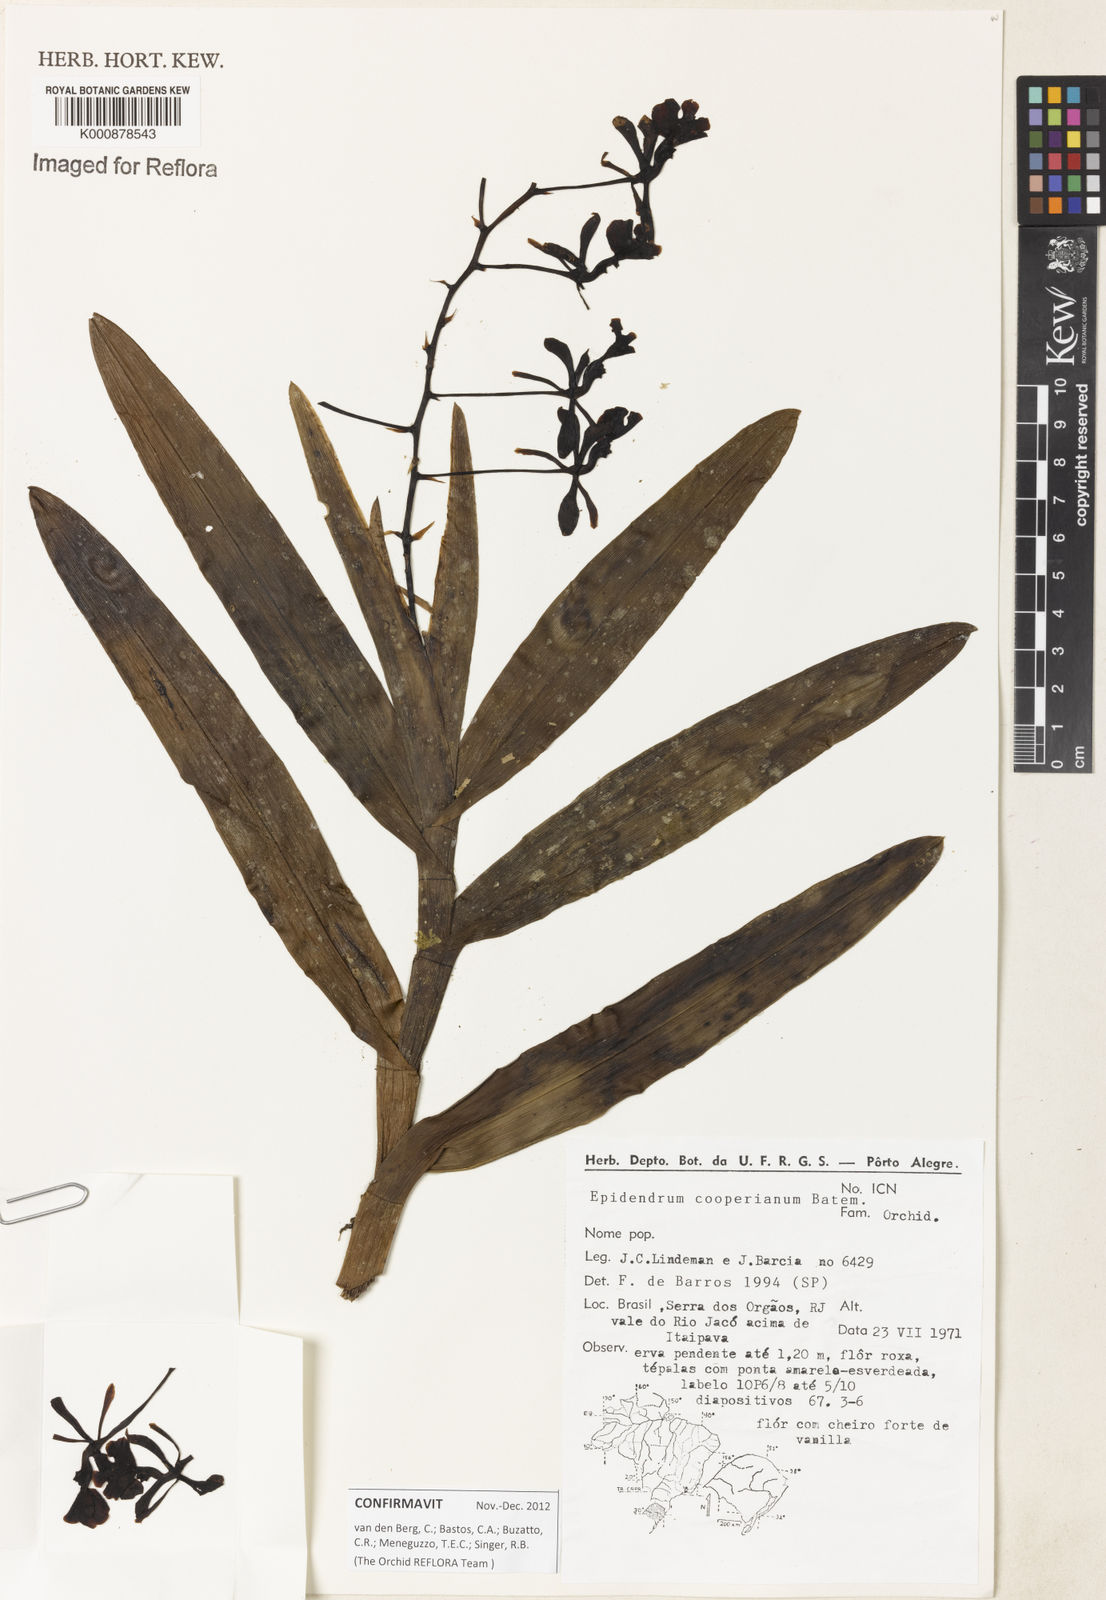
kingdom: Plantae
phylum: Tracheophyta
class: Liliopsida
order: Asparagales
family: Orchidaceae
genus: Epidendrum
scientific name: Epidendrum cooperianum
